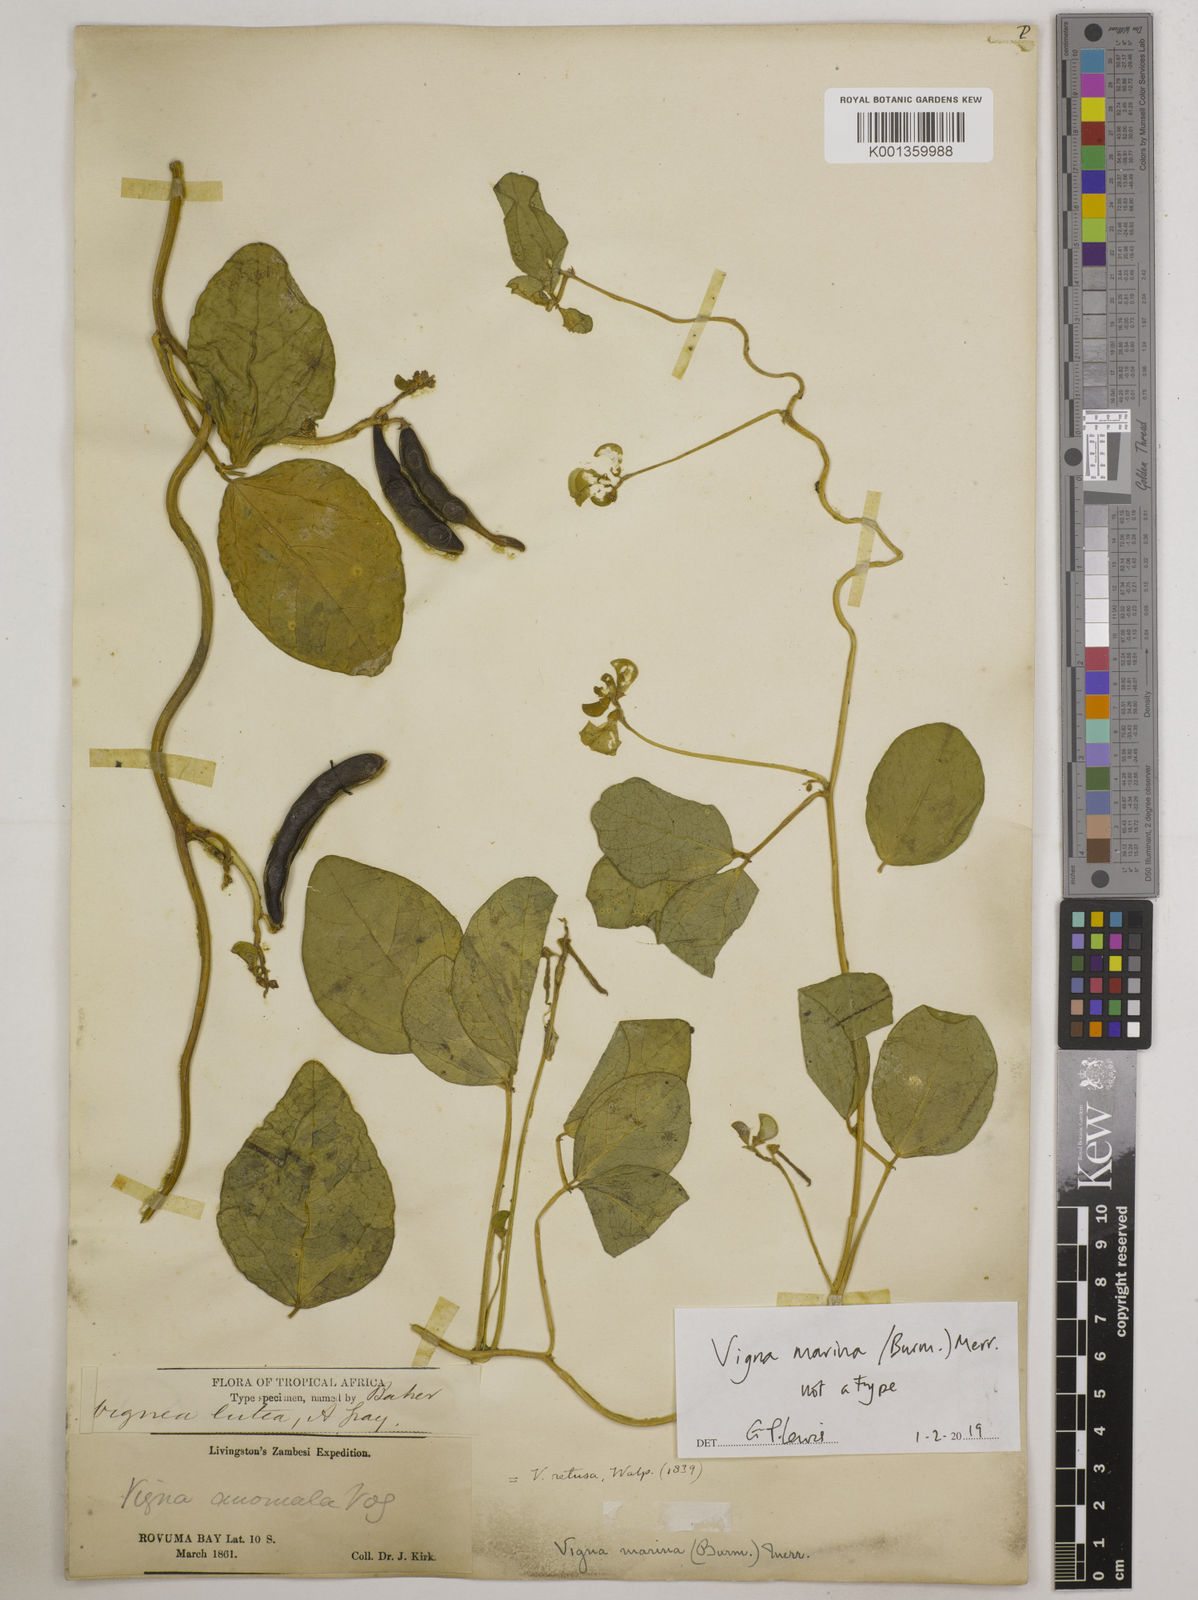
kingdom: Plantae
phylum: Tracheophyta
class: Magnoliopsida
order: Fabales
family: Fabaceae
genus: Vigna
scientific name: Vigna marina
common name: Dune-bean
